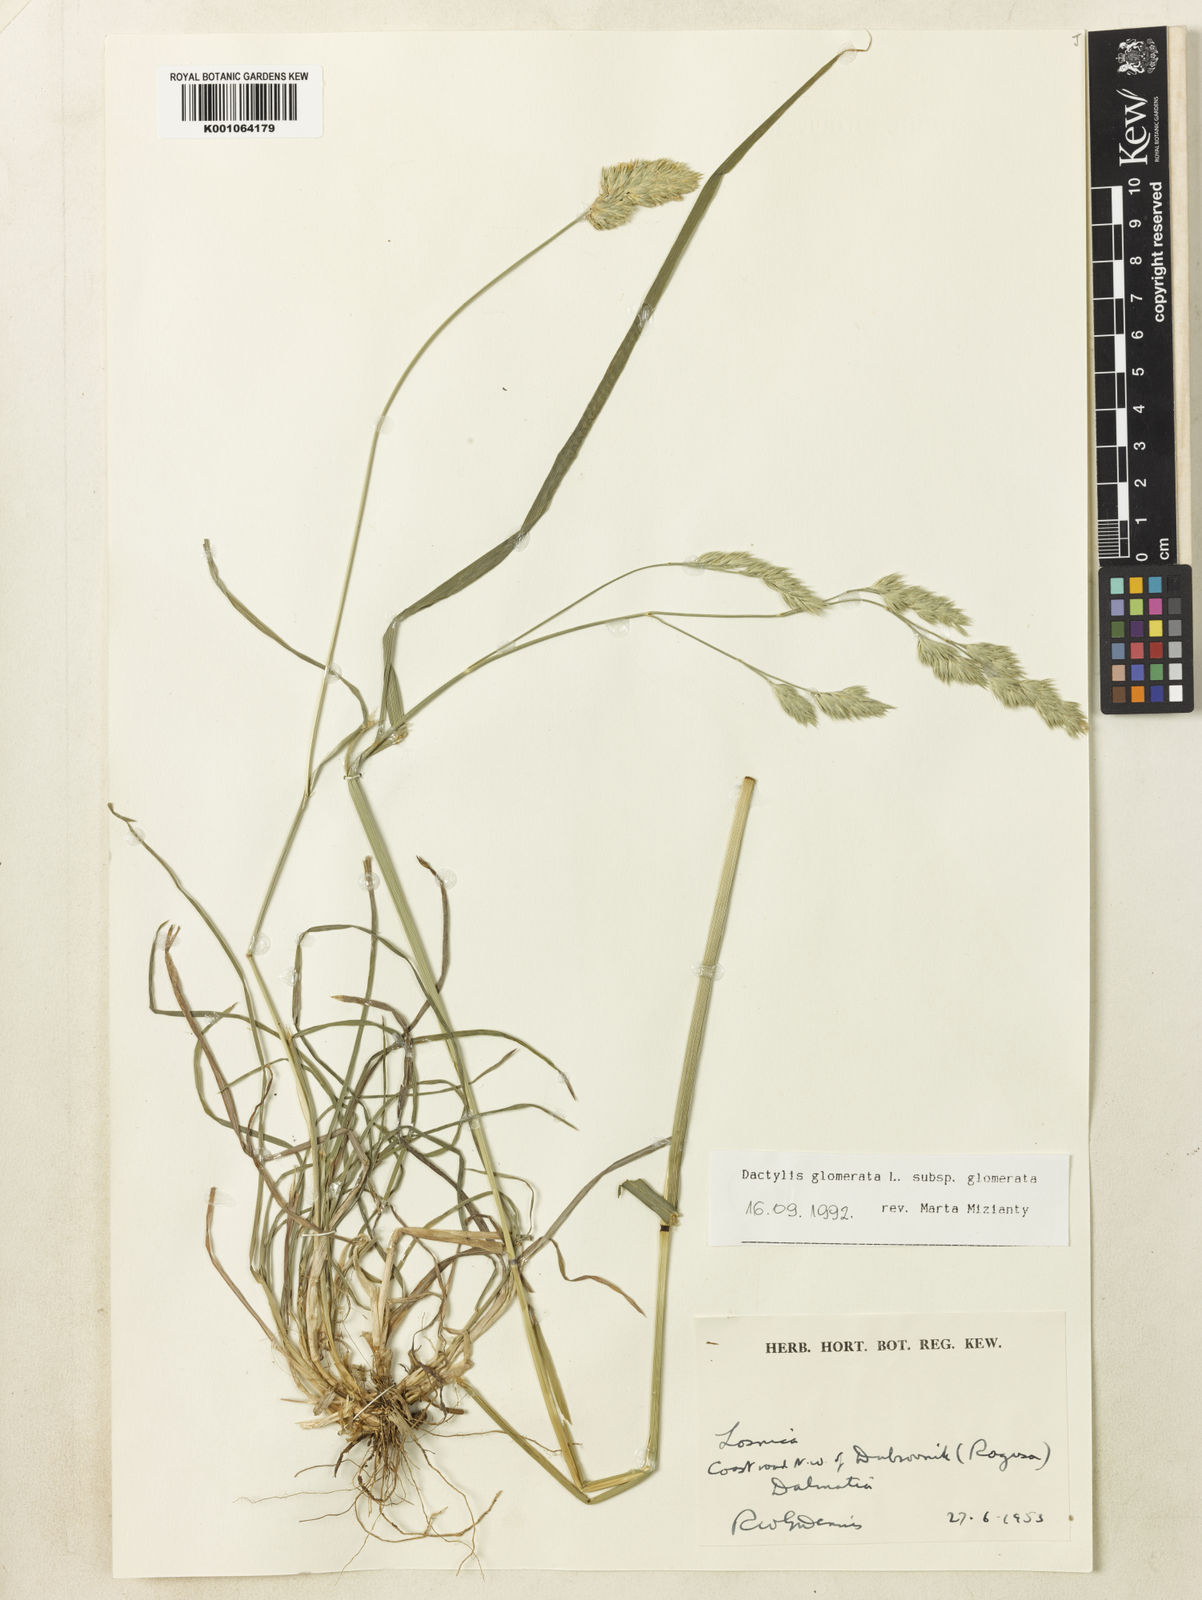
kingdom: Plantae
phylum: Tracheophyta
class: Liliopsida
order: Poales
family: Poaceae
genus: Dactylis
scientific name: Dactylis glomerata
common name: Orchardgrass
